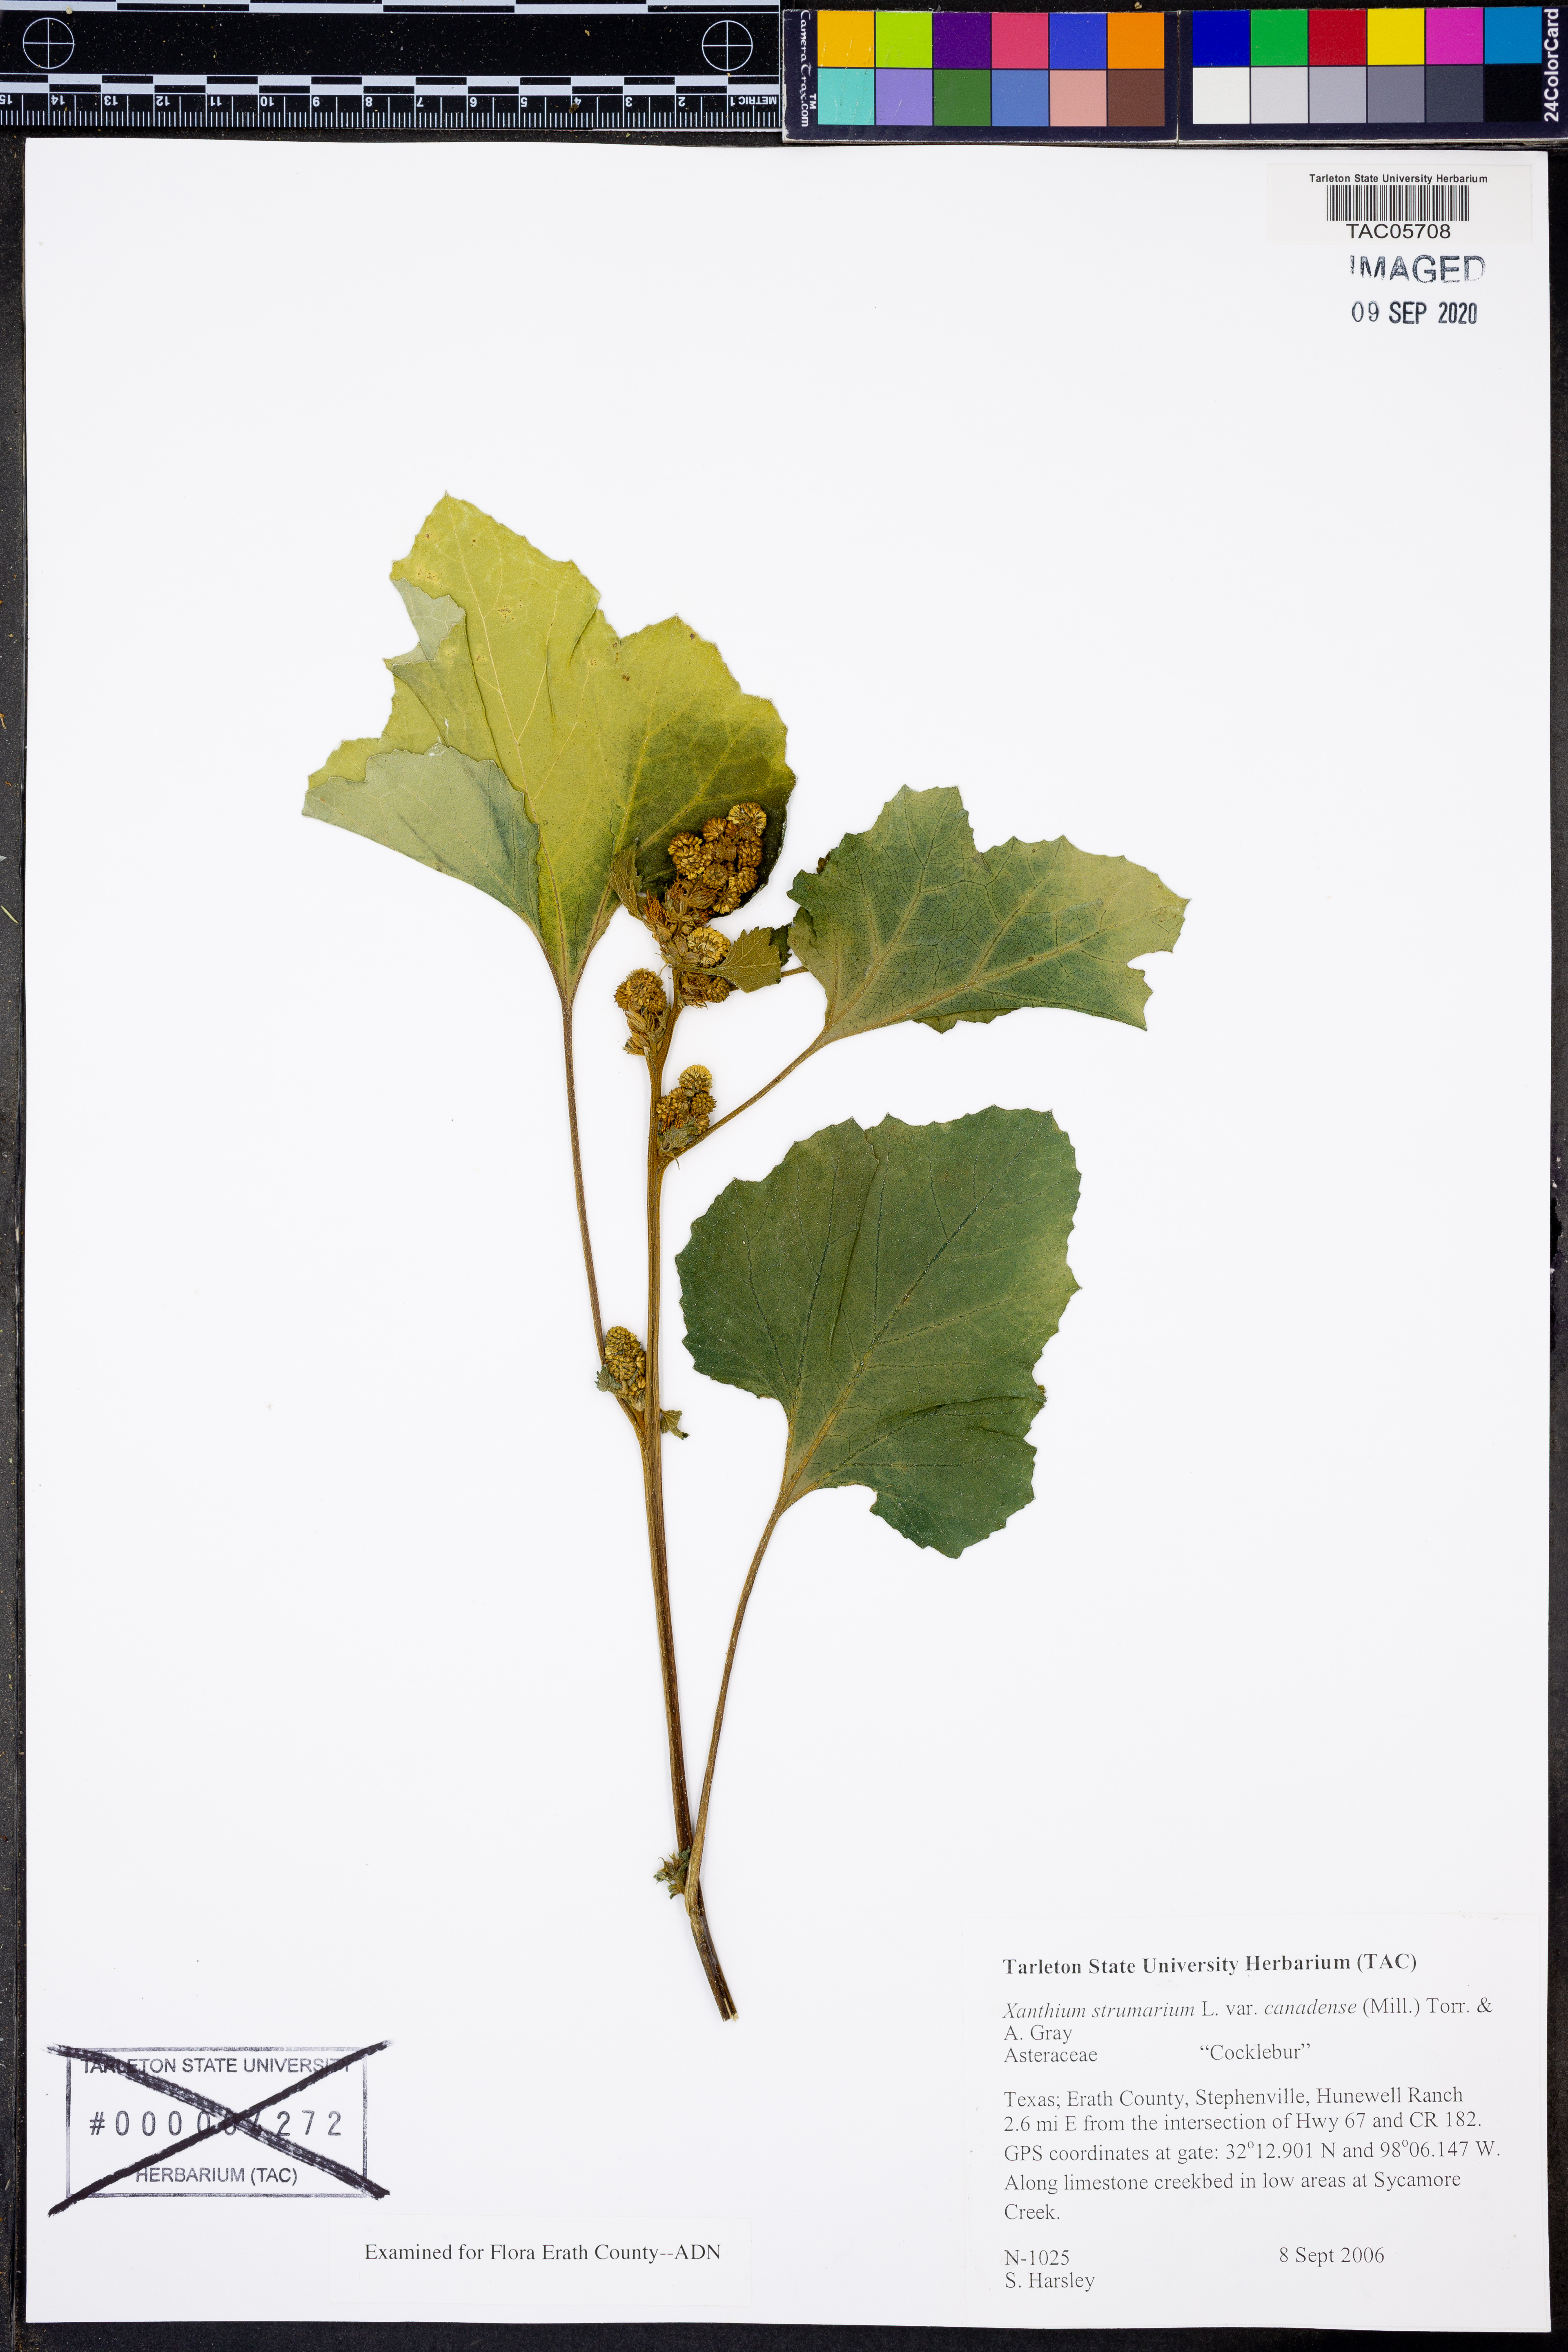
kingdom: Plantae
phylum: Tracheophyta
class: Magnoliopsida
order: Asterales
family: Asteraceae
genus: Xanthium
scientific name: Xanthium orientale
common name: Californian burr
